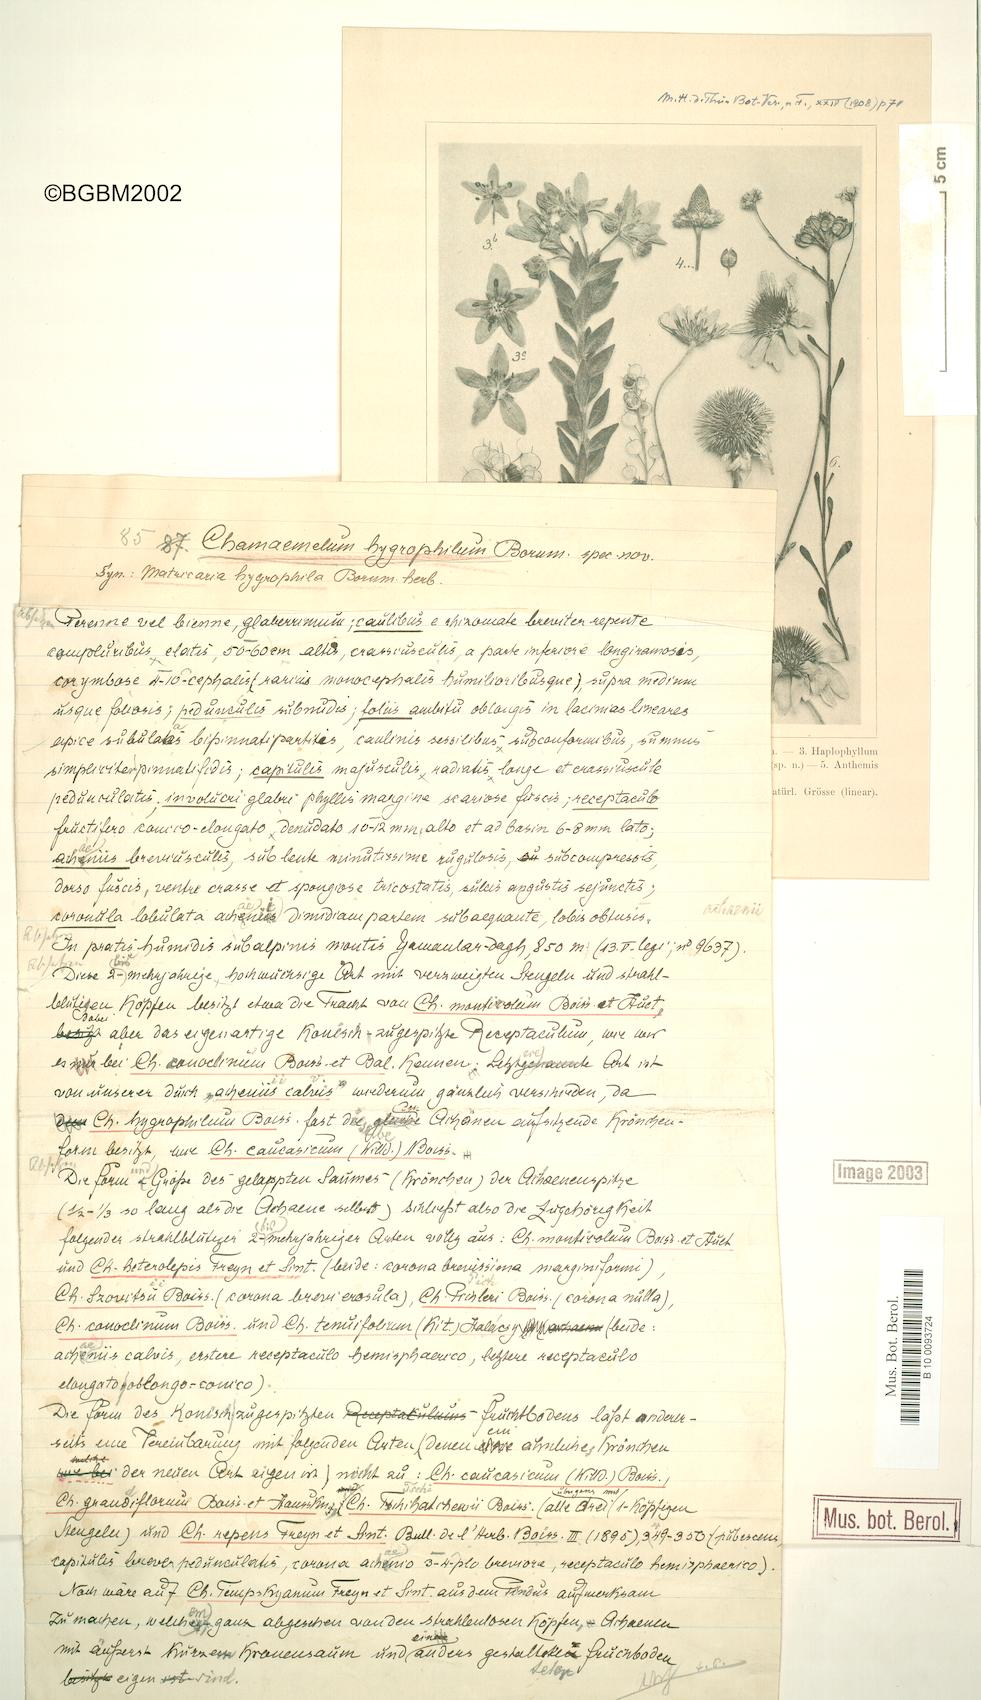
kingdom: Plantae
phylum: Tracheophyta
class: Magnoliopsida
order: Asterales
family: Asteraceae
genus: Tripleurospermum
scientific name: Tripleurospermum hygrophilum
